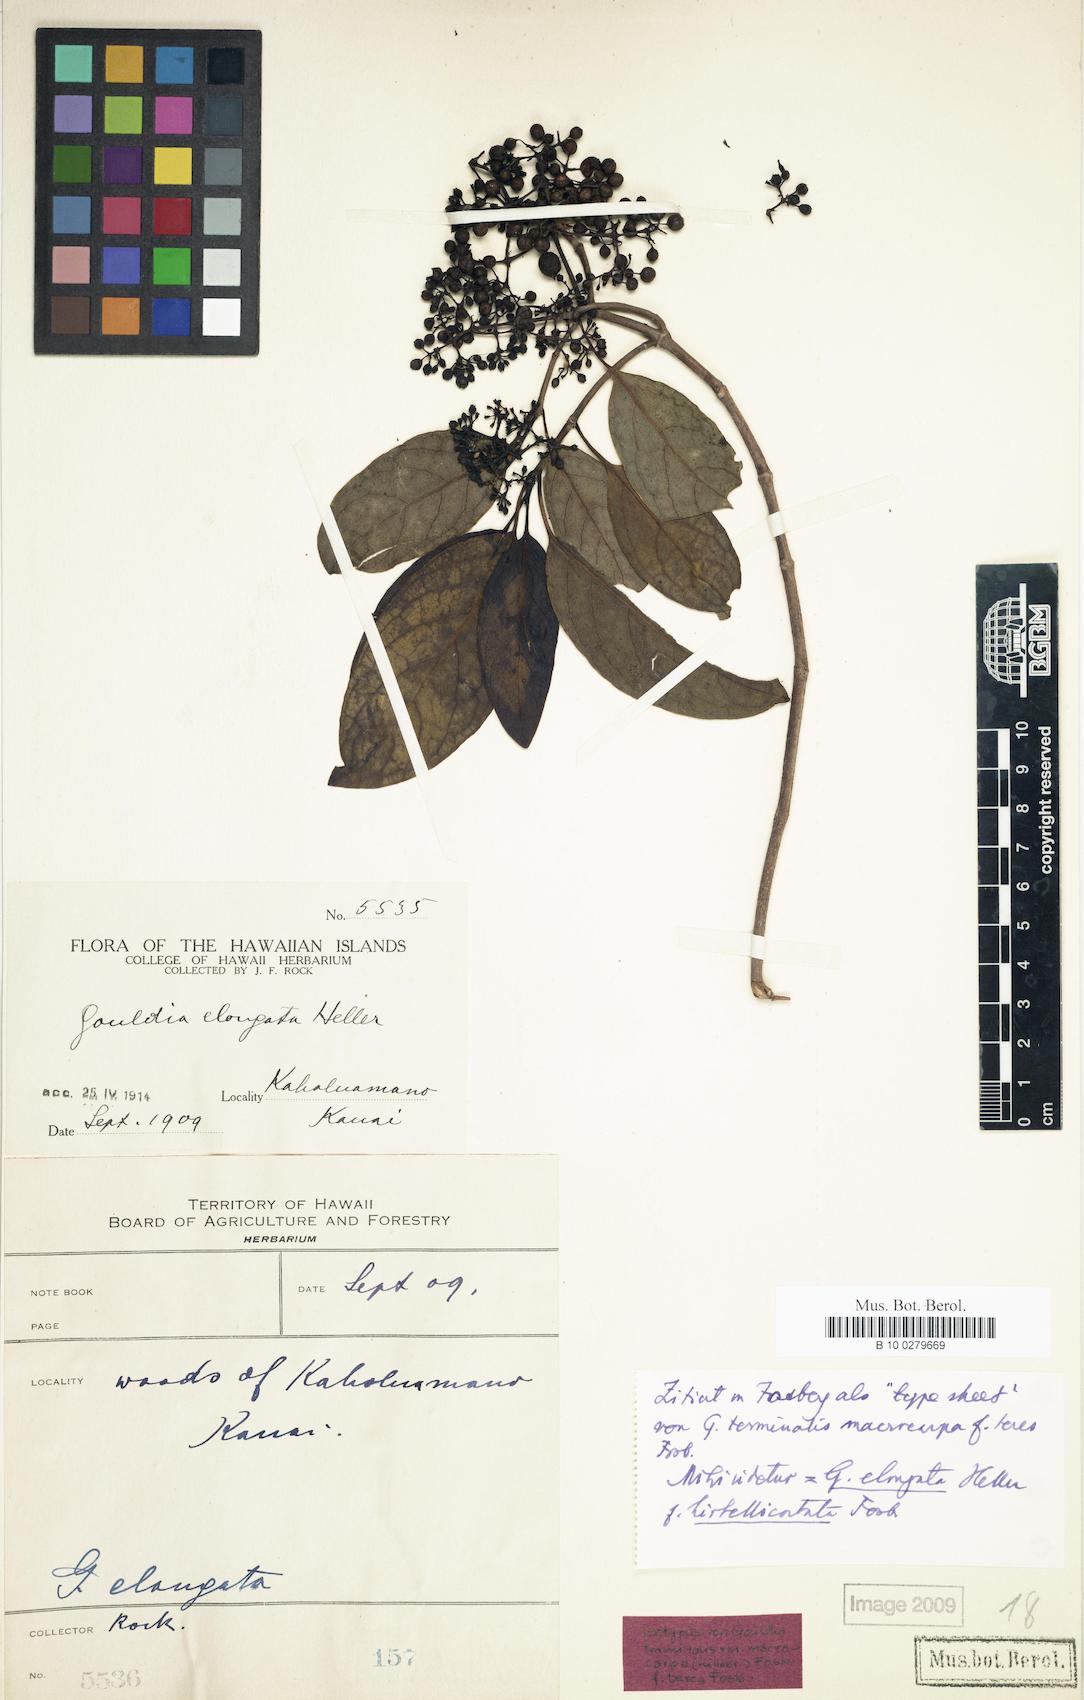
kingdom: Plantae
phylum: Tracheophyta
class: Magnoliopsida
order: Gentianales
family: Rubiaceae
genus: Kadua
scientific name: Kadua affinis
